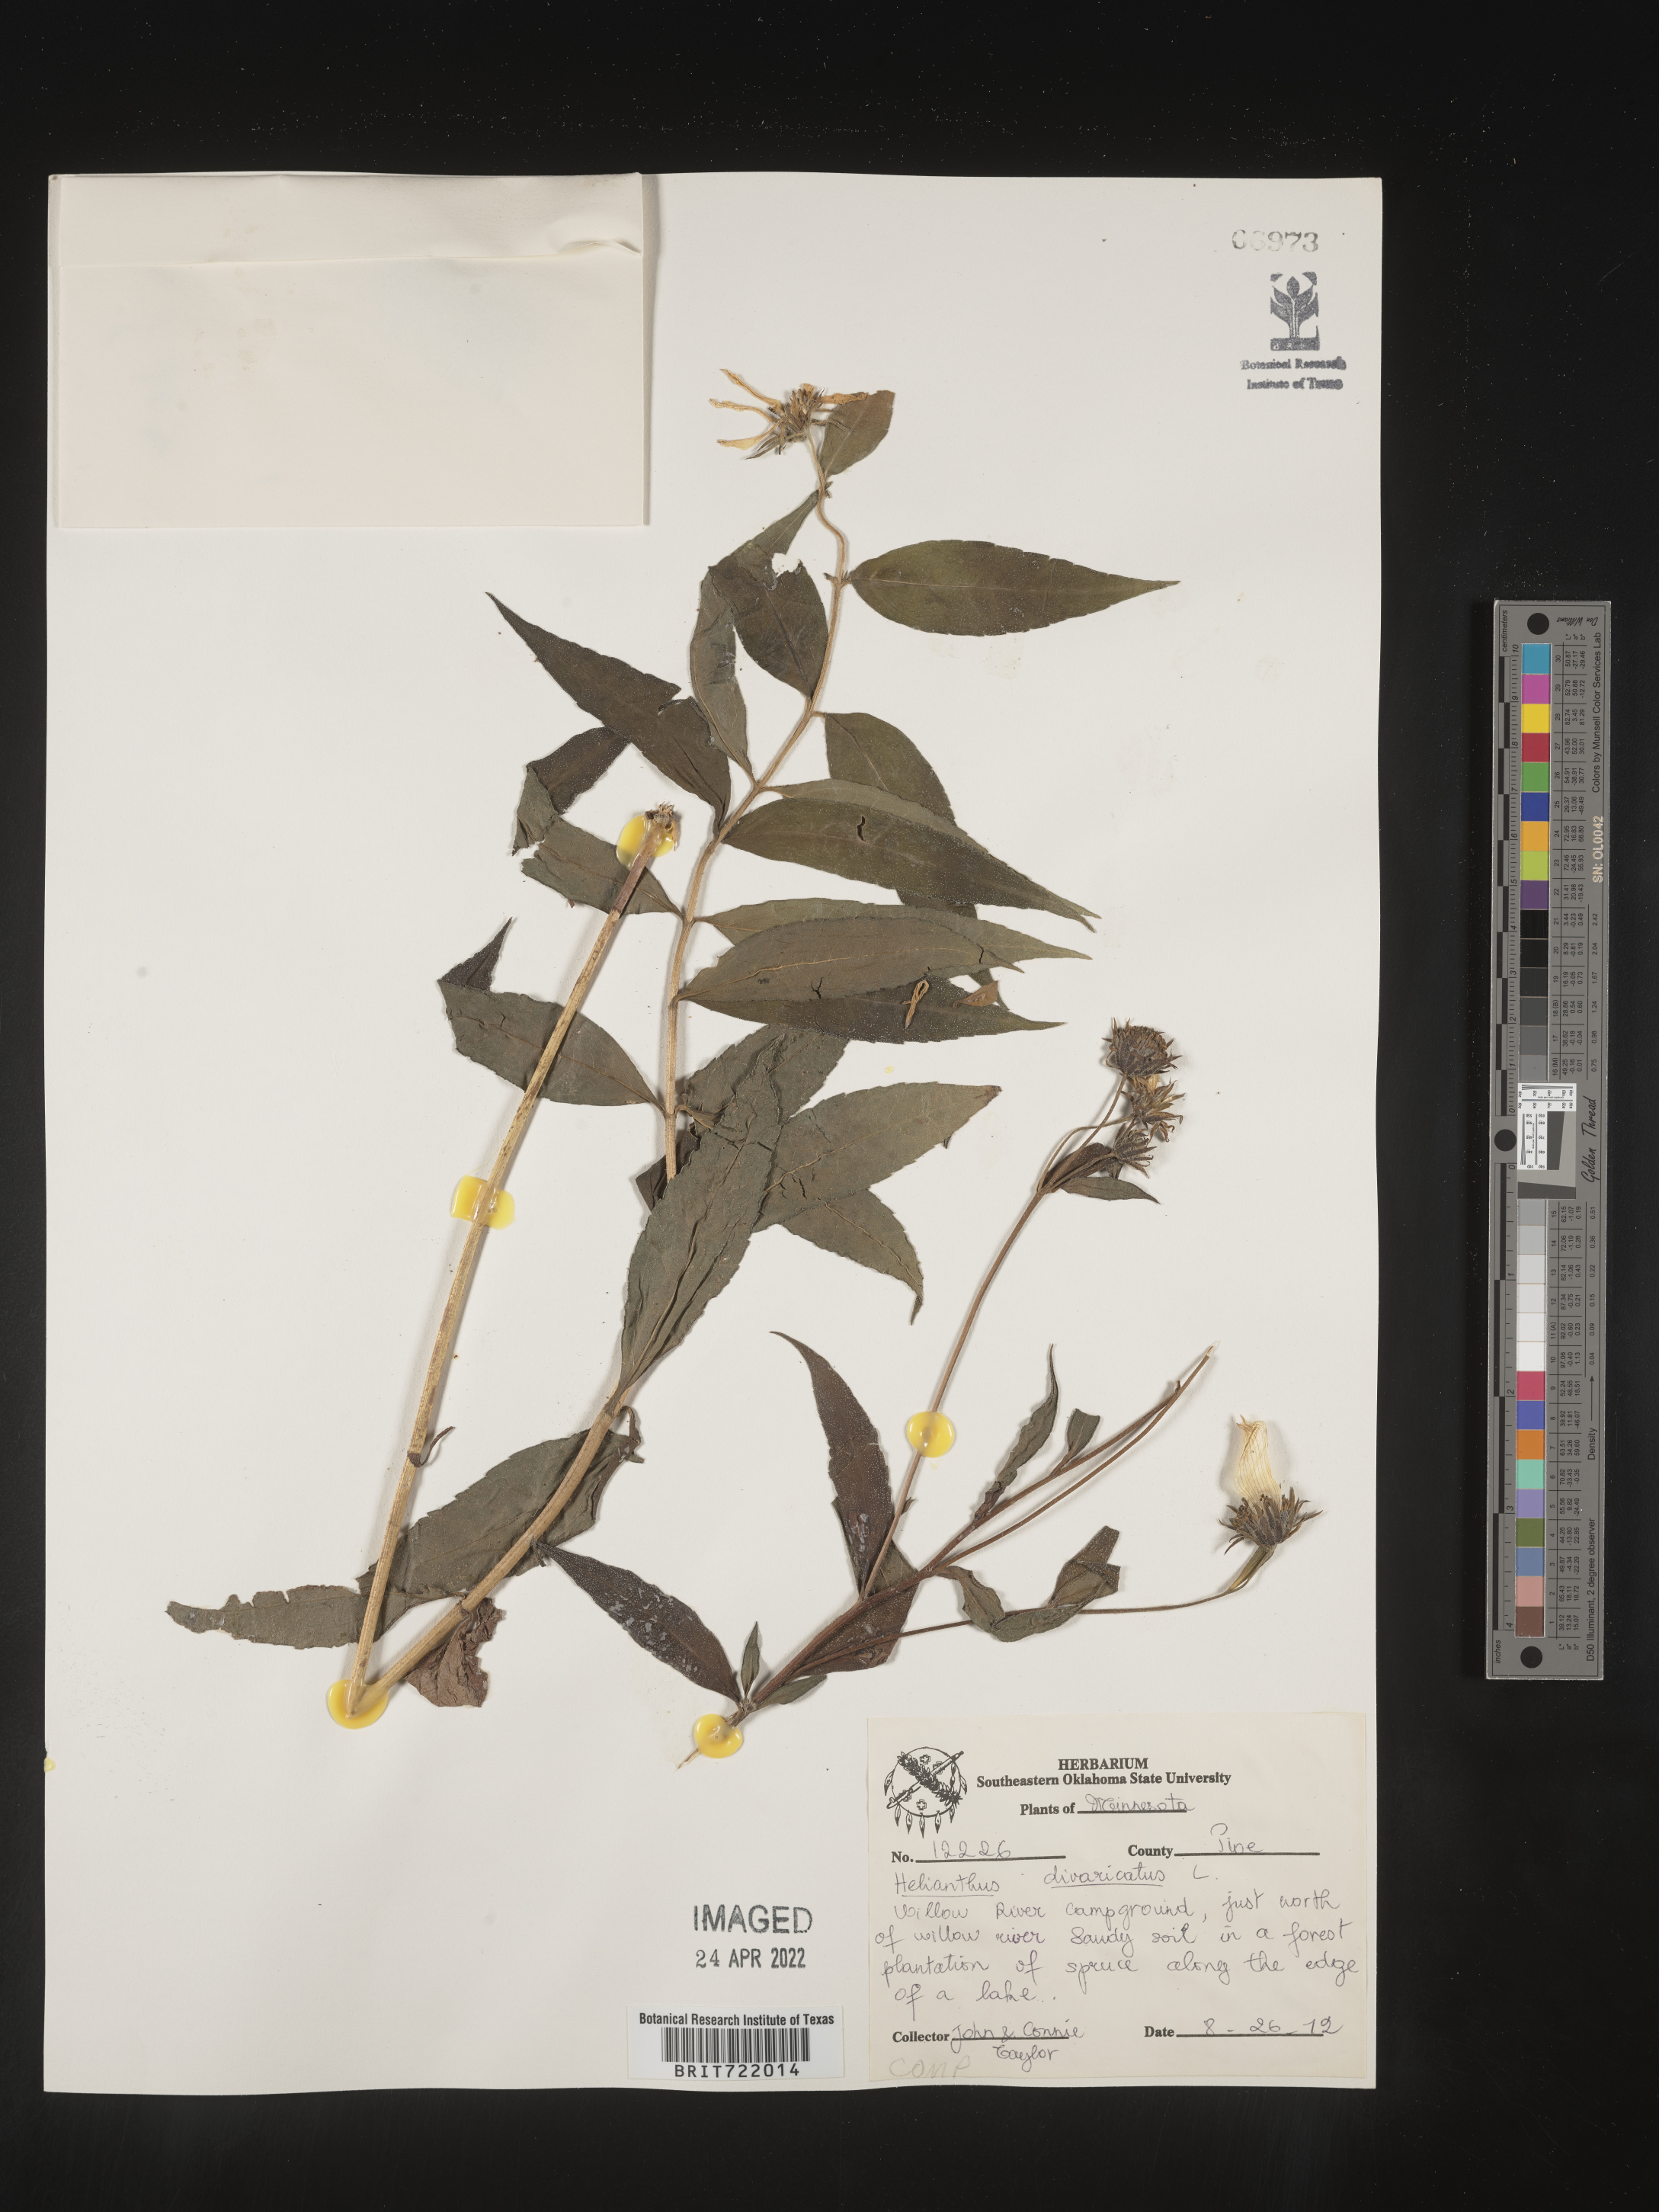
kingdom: Plantae
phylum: Tracheophyta
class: Magnoliopsida
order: Asterales
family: Asteraceae
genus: Helianthus
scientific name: Helianthus divaricatus
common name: Divergent sunflower
